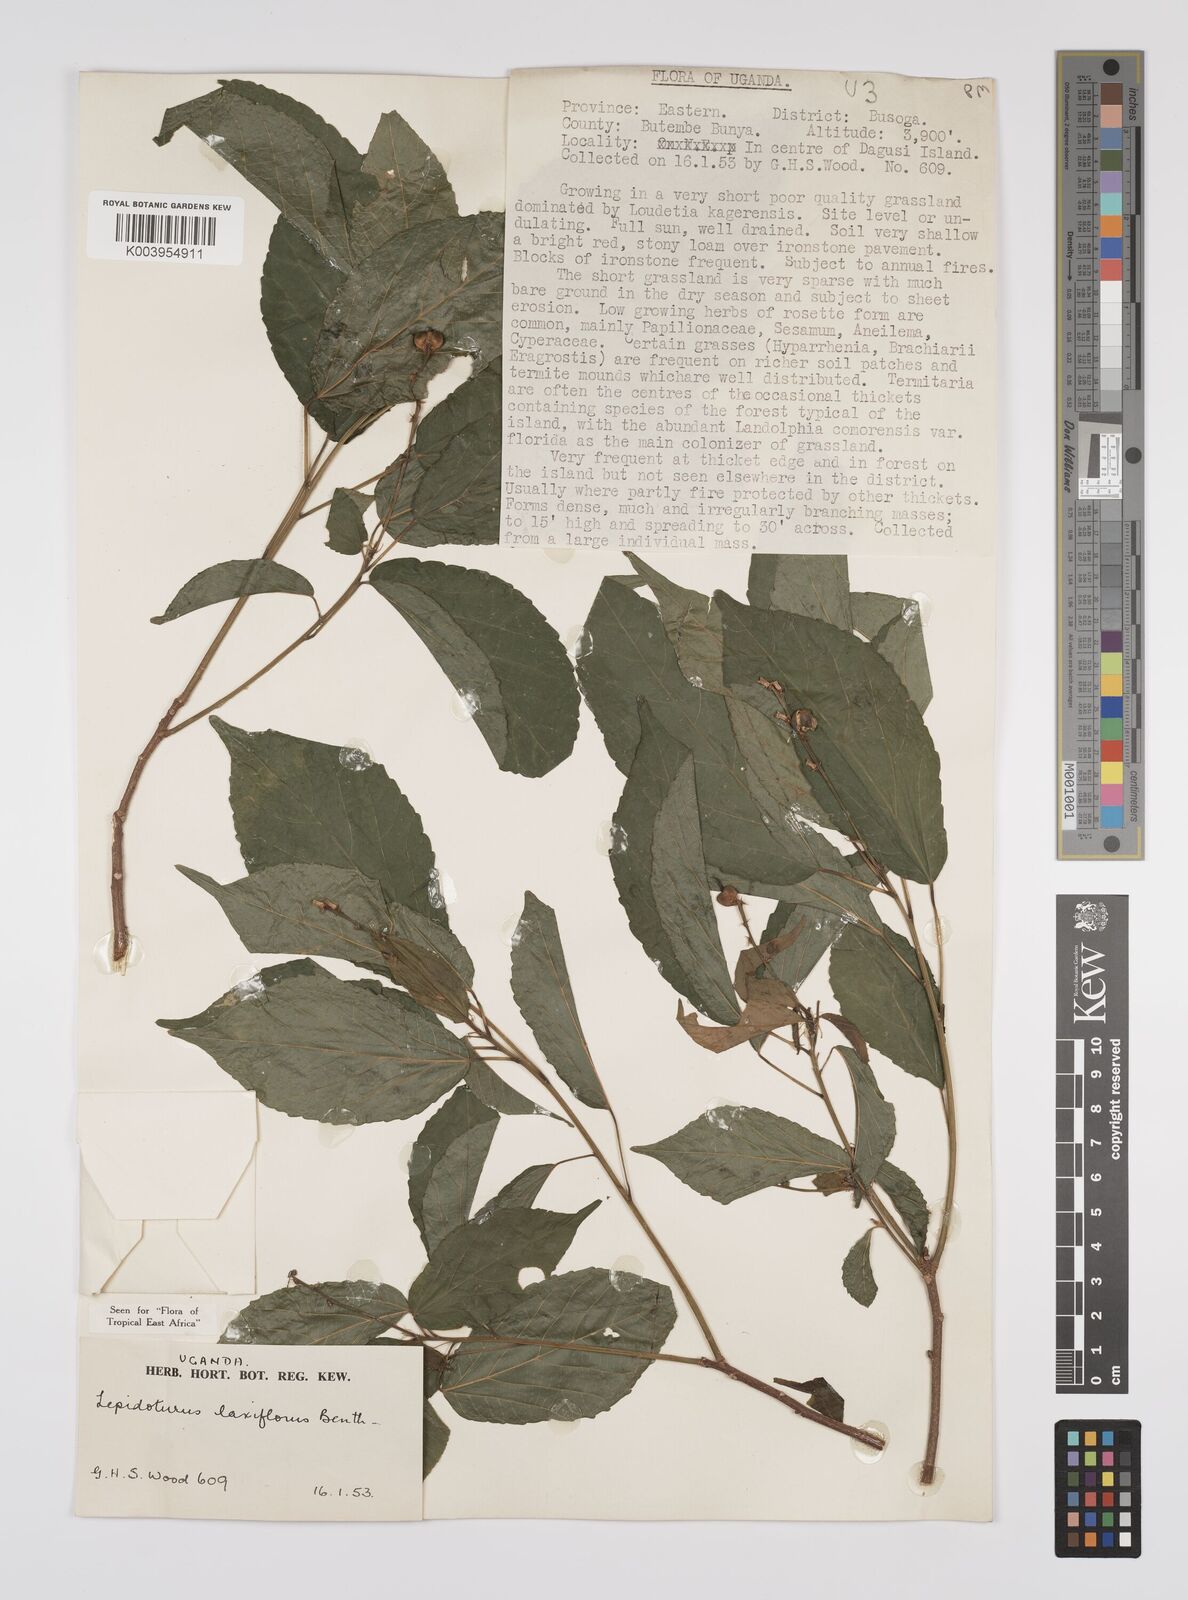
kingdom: Plantae
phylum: Tracheophyta
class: Magnoliopsida
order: Malpighiales
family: Euphorbiaceae
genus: Alchornea
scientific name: Alchornea laxiflora
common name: Lowveld bead-string
